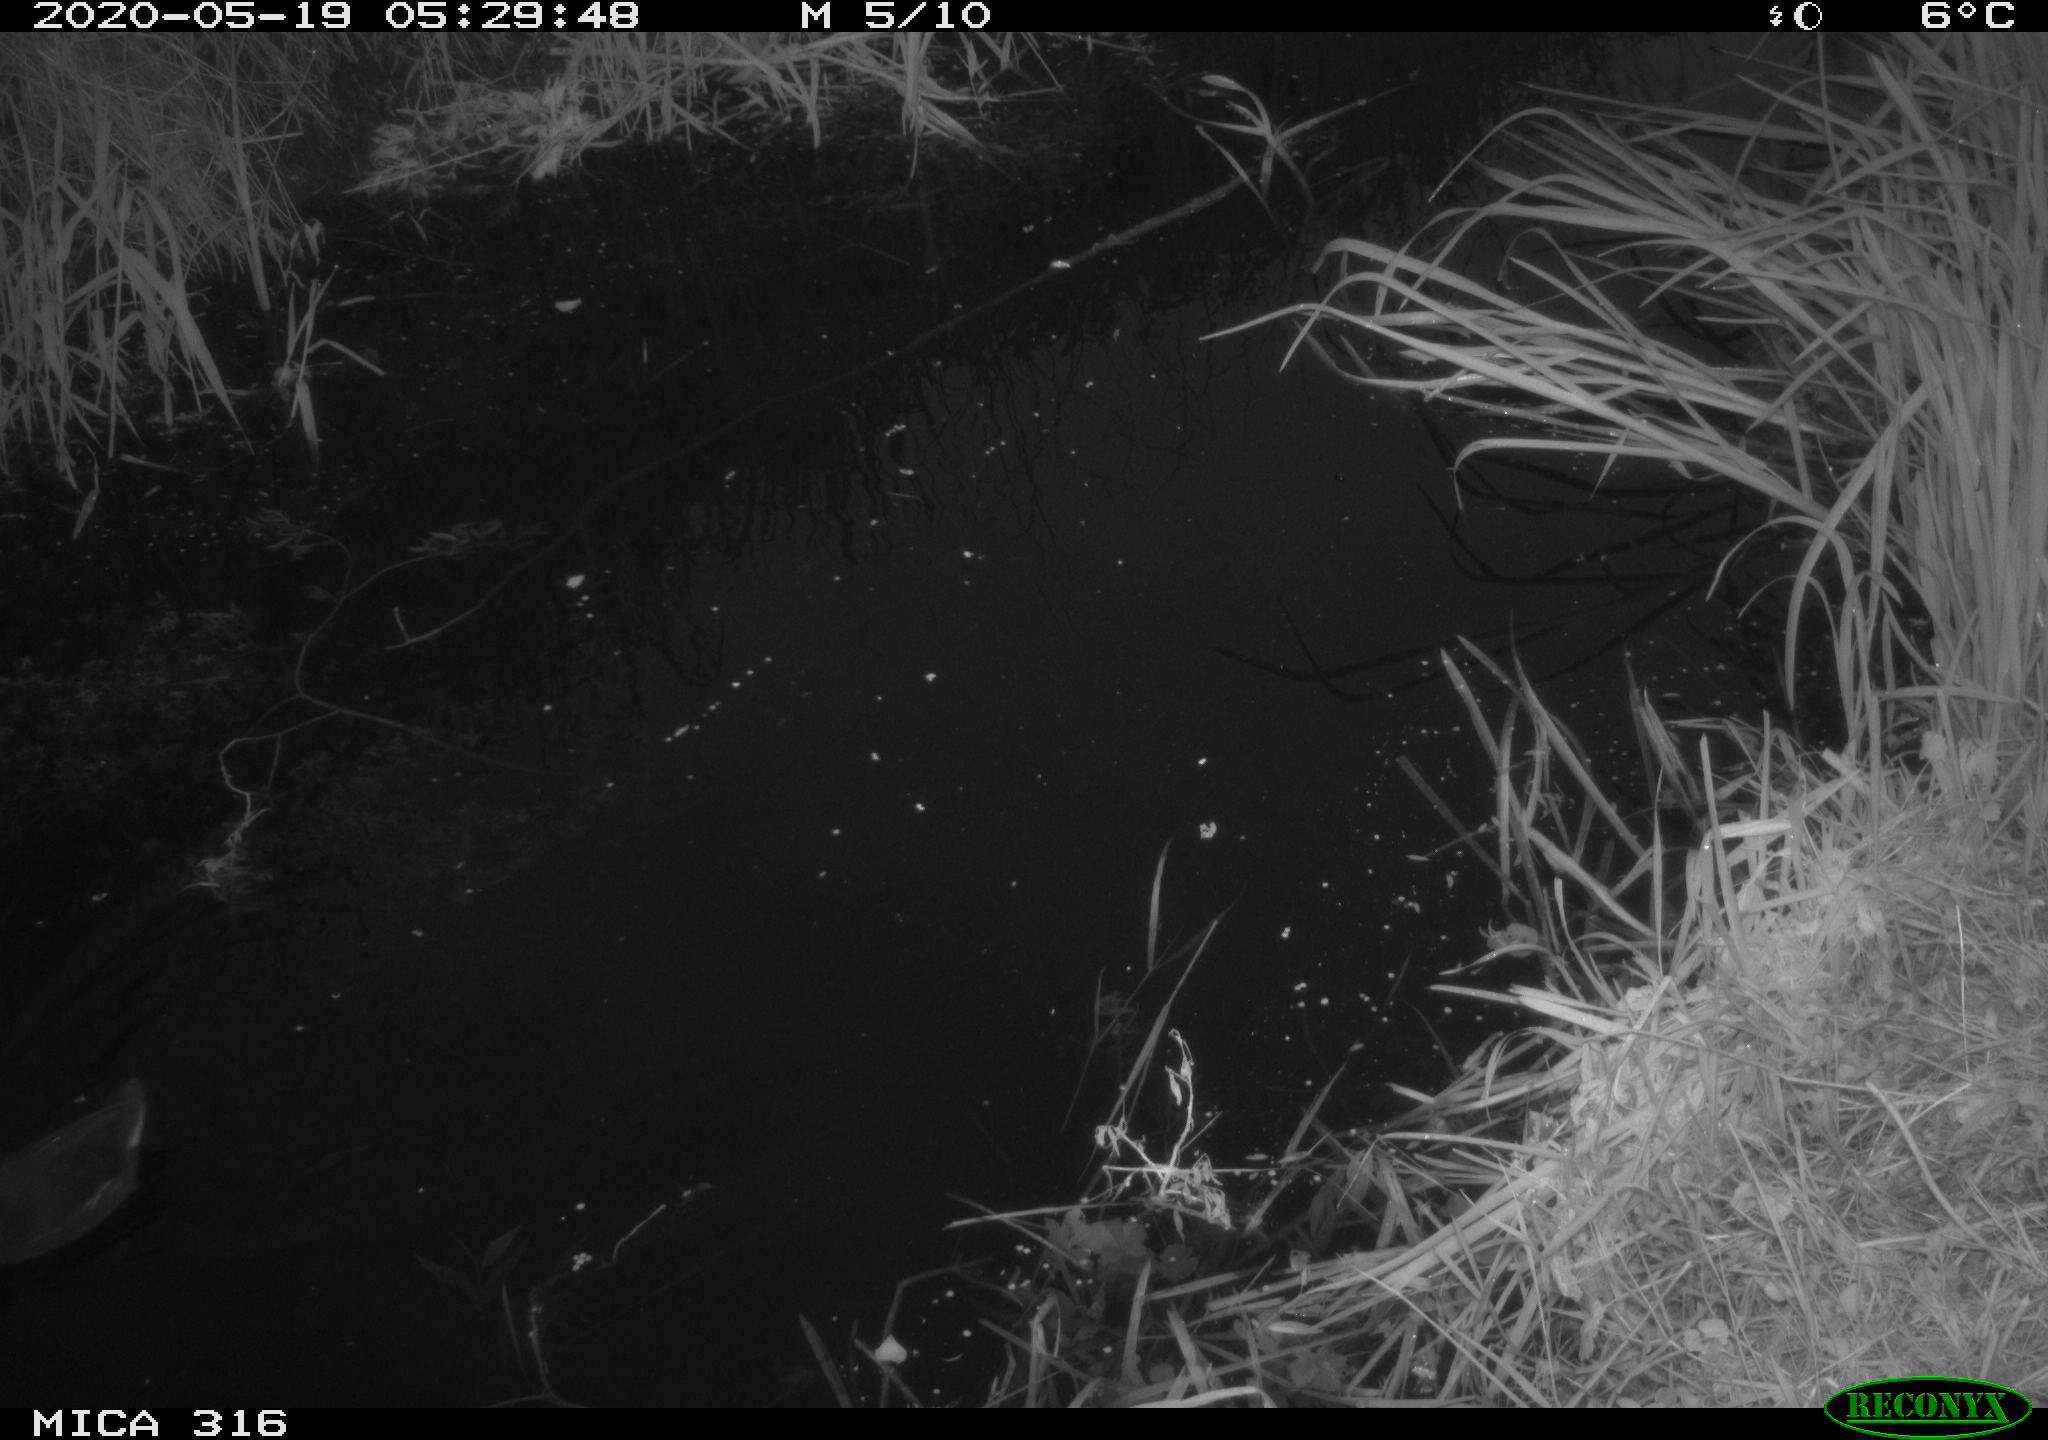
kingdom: Animalia
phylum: Chordata
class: Aves
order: Gruiformes
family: Rallidae
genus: Gallinula
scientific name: Gallinula chloropus
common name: Common moorhen
